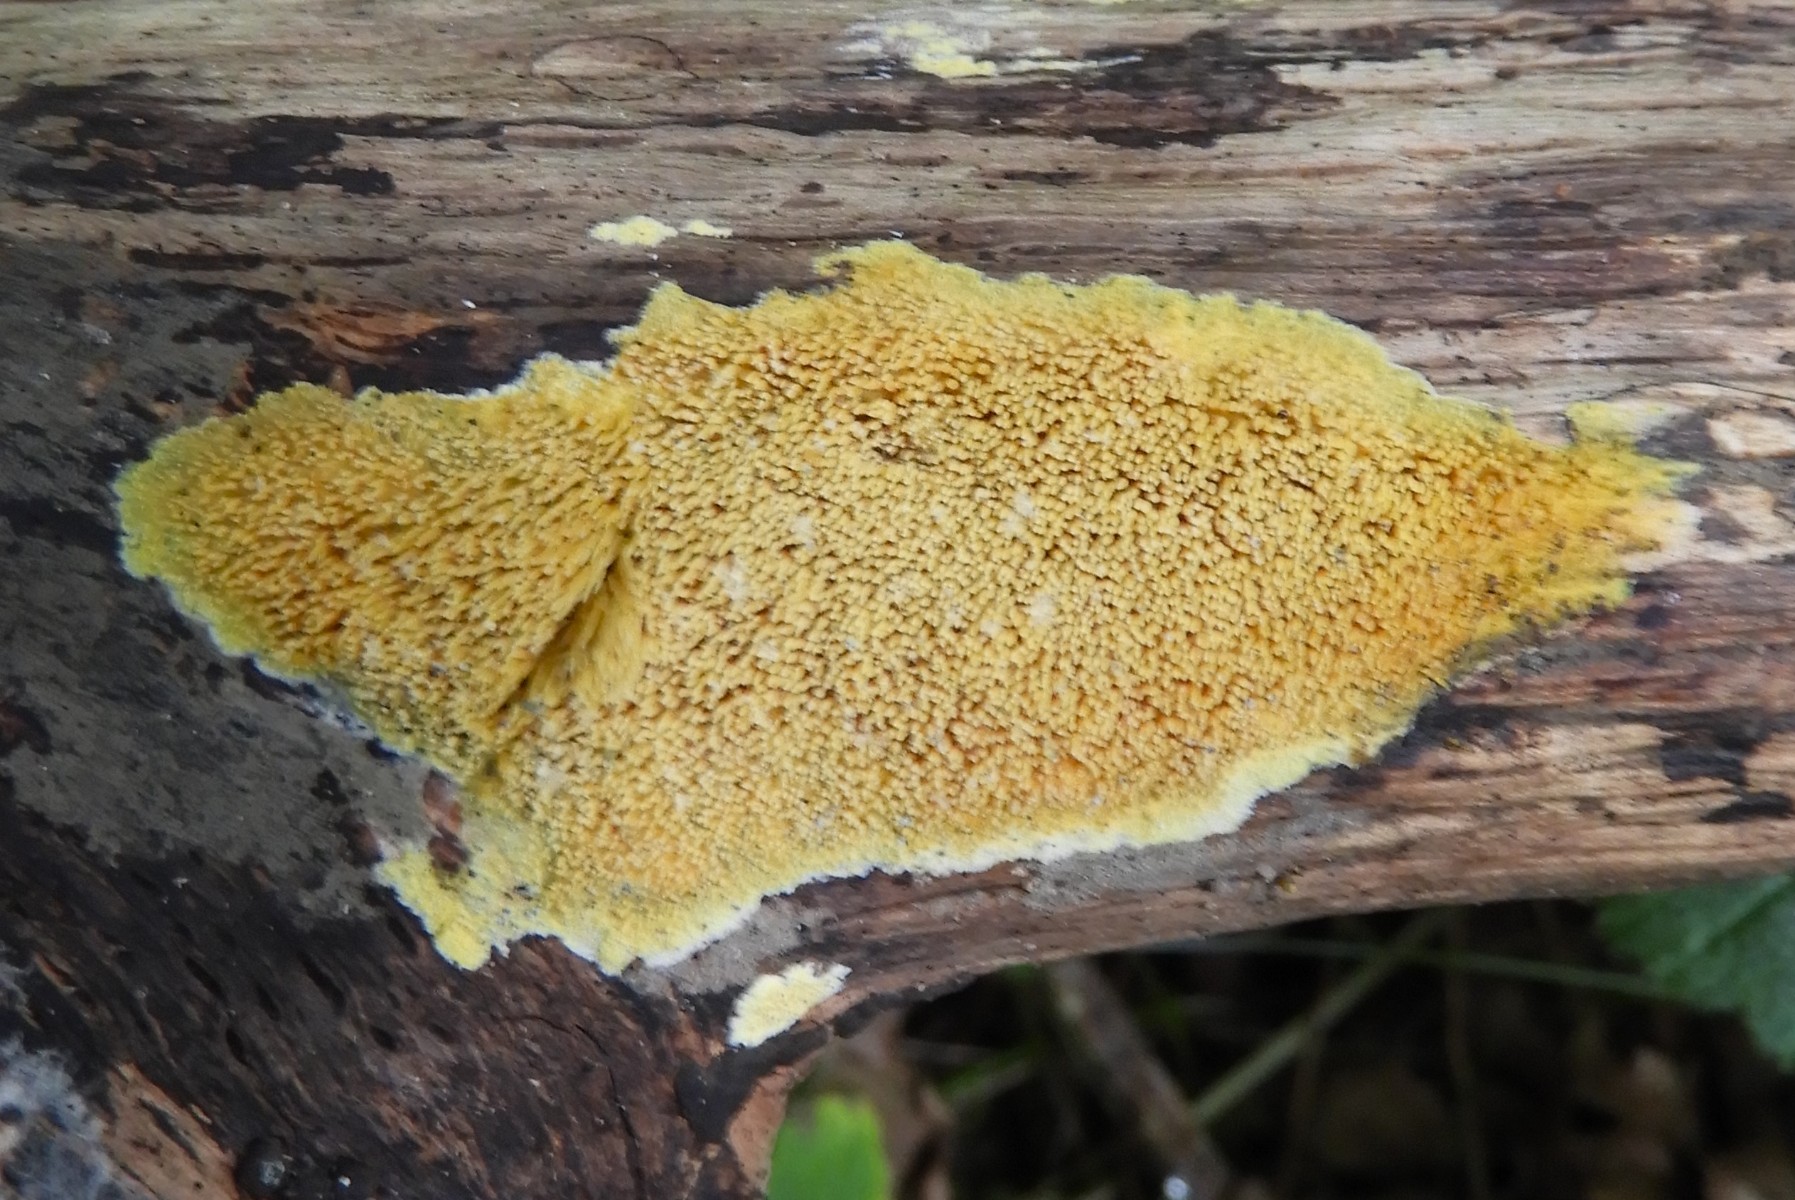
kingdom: Fungi
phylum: Basidiomycota
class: Agaricomycetes
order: Polyporales
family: Meruliaceae
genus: Mycoacia
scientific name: Mycoacia uda
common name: citrongul vokspig
